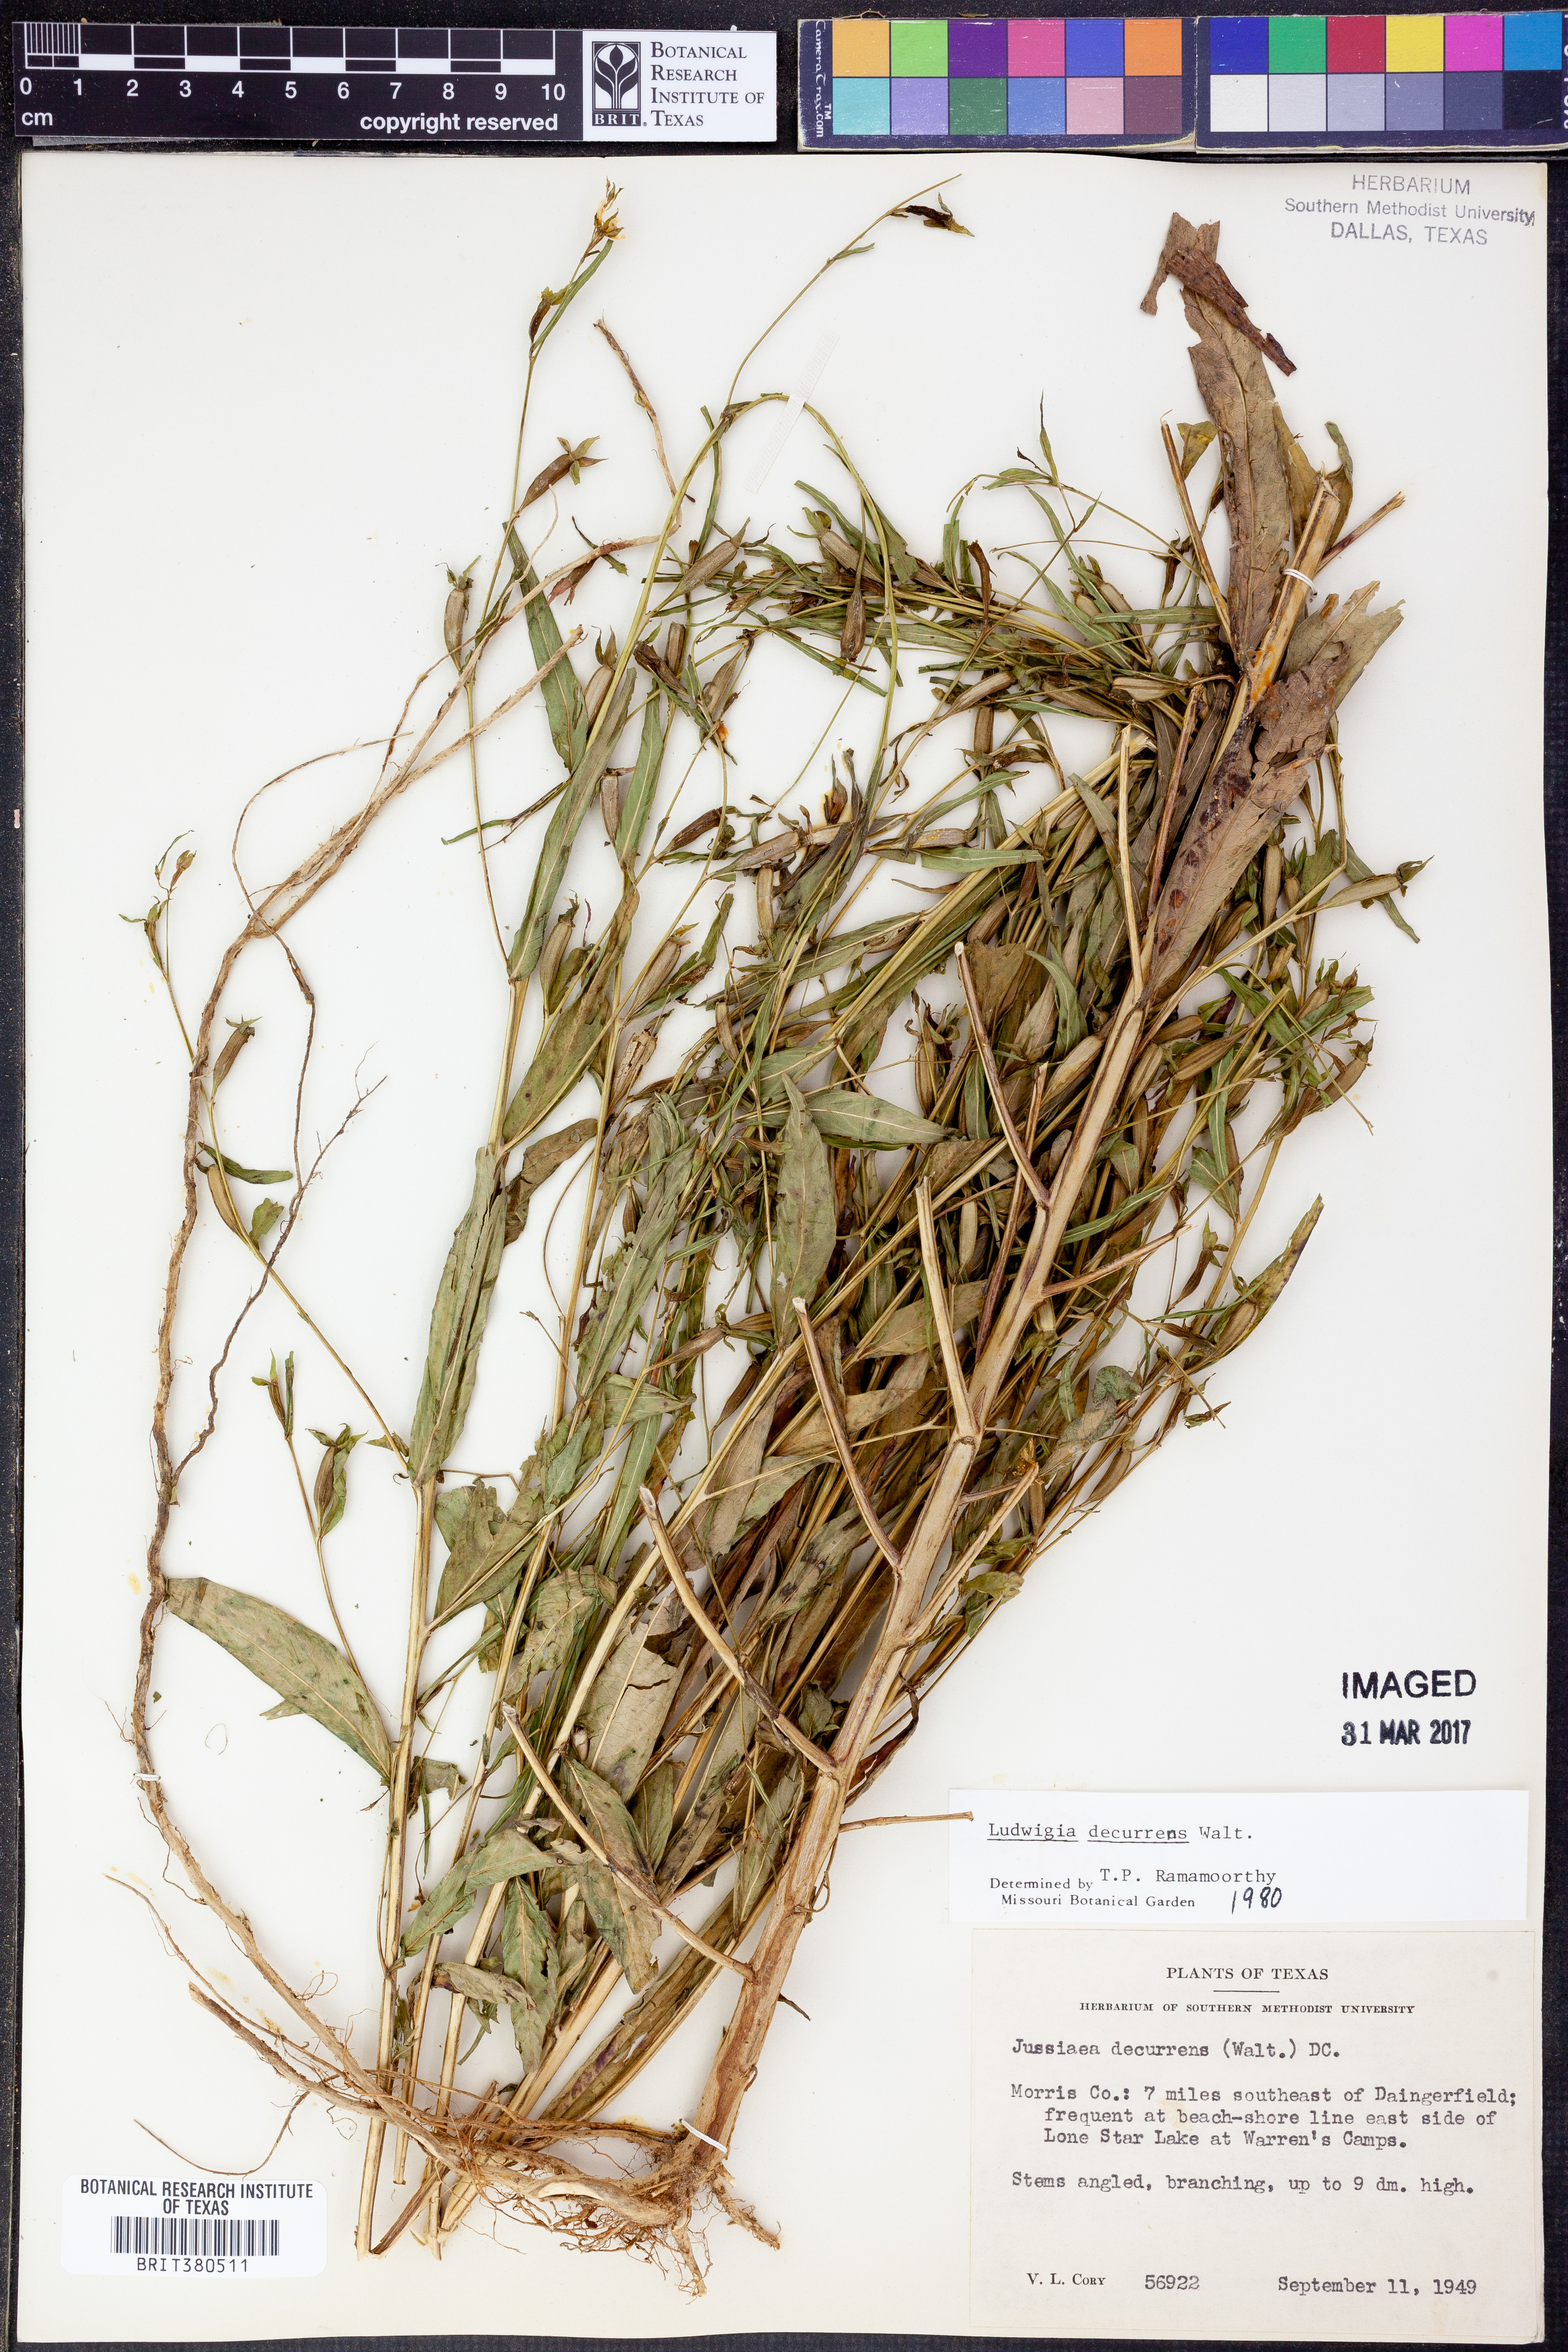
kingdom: Plantae
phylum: Tracheophyta
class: Magnoliopsida
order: Myrtales
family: Onagraceae
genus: Ludwigia
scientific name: Ludwigia decurrens
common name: Winged water-primrose
